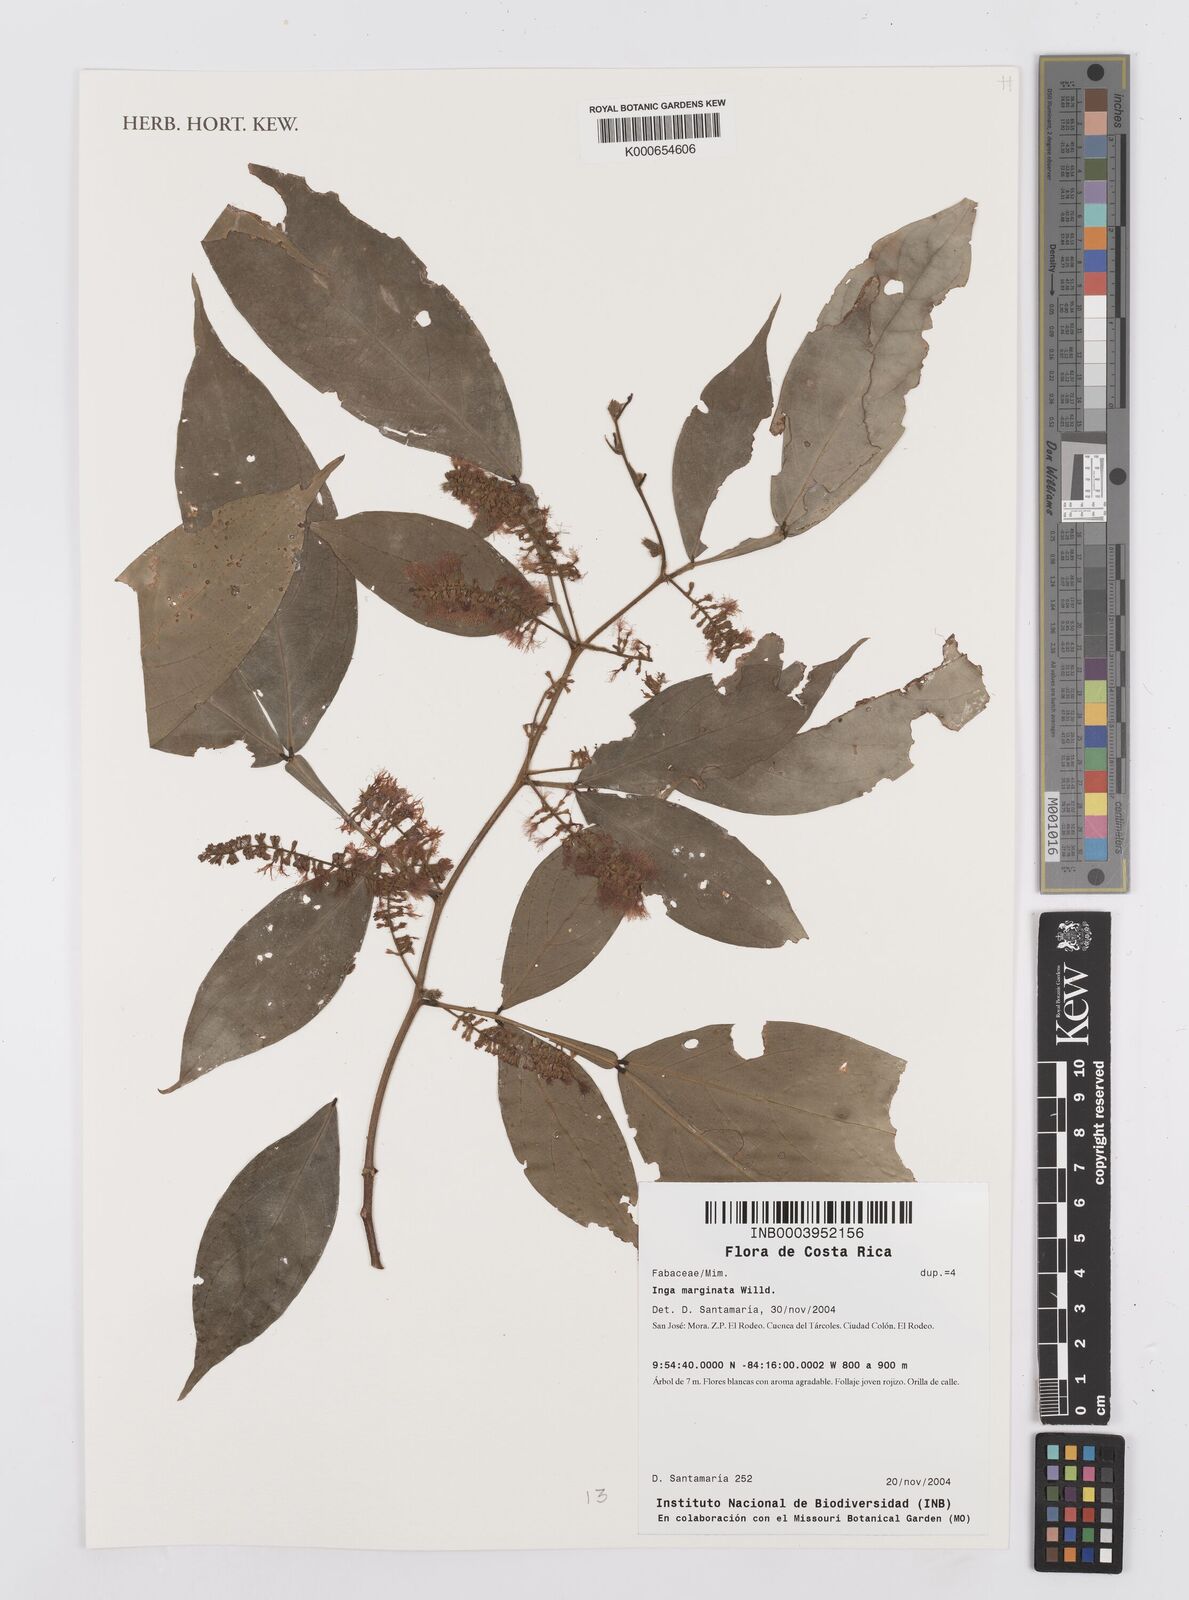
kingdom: Plantae
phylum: Tracheophyta
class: Magnoliopsida
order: Fabales
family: Fabaceae
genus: Inga
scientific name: Inga marginata
